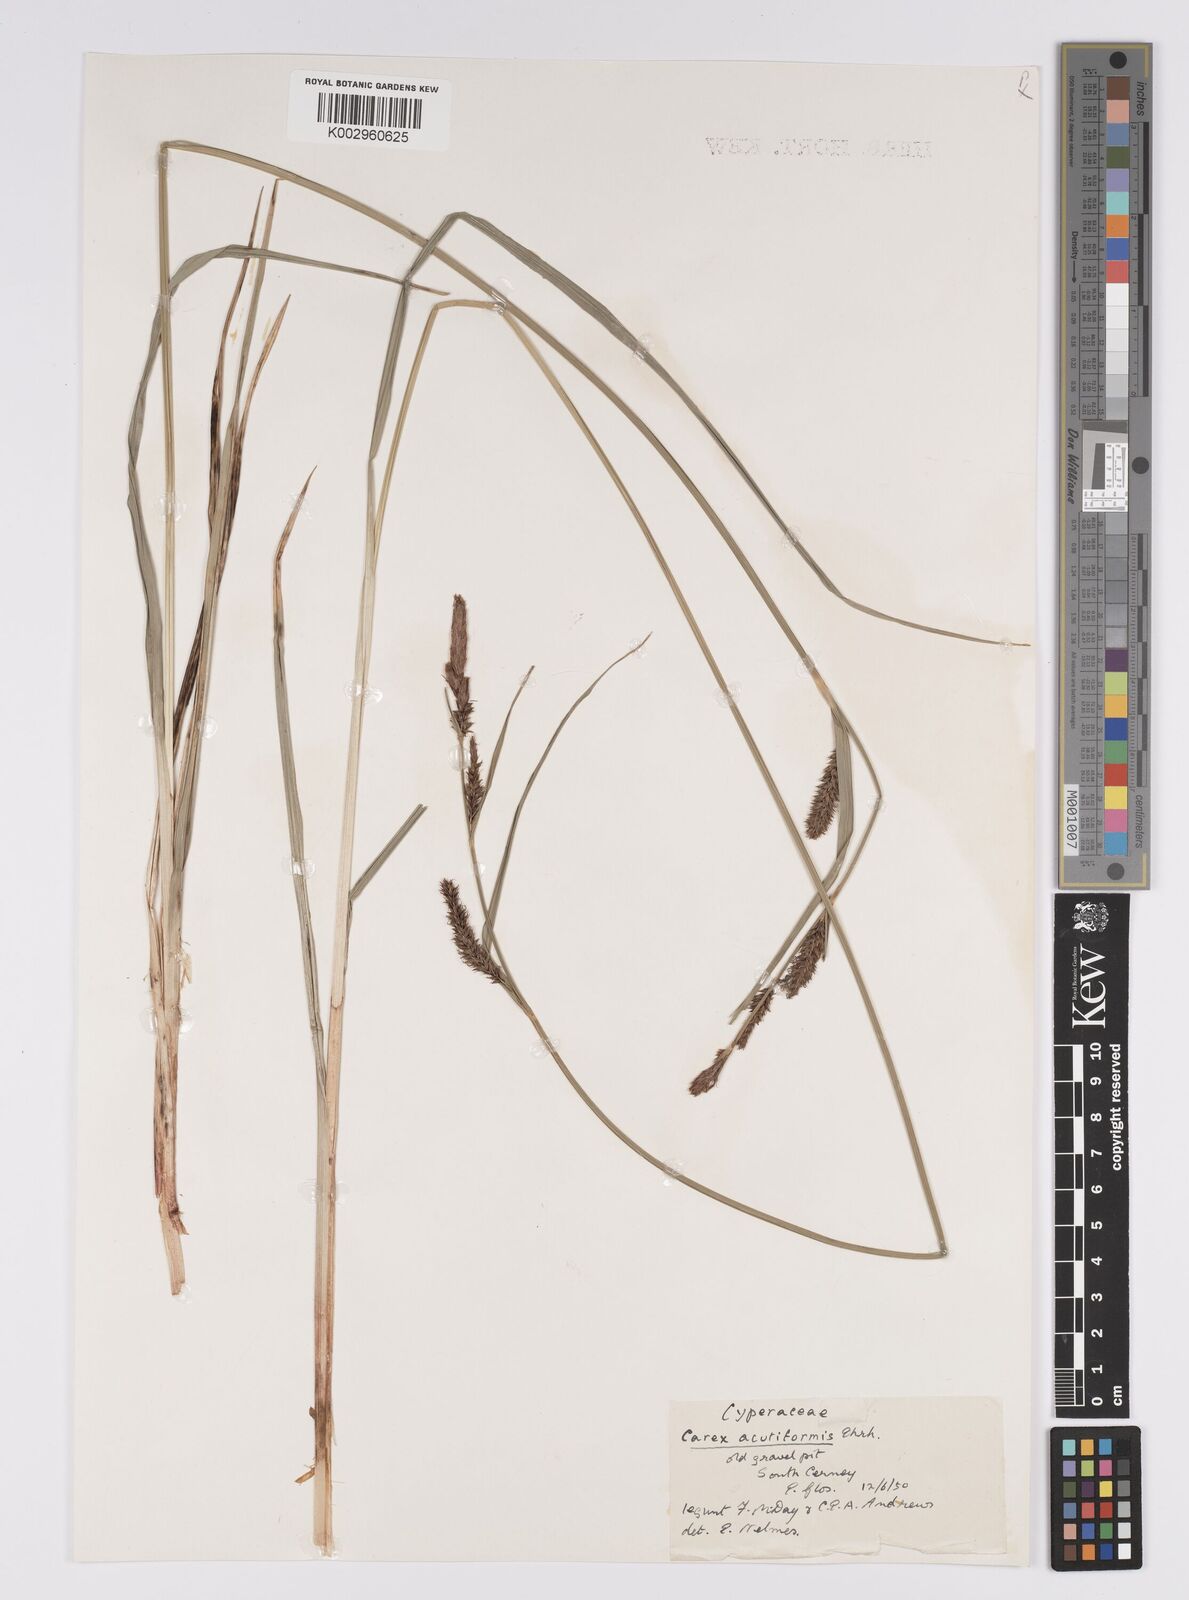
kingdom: Plantae
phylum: Tracheophyta
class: Liliopsida
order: Poales
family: Cyperaceae
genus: Carex
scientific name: Carex acutiformis
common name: Lesser pond-sedge
